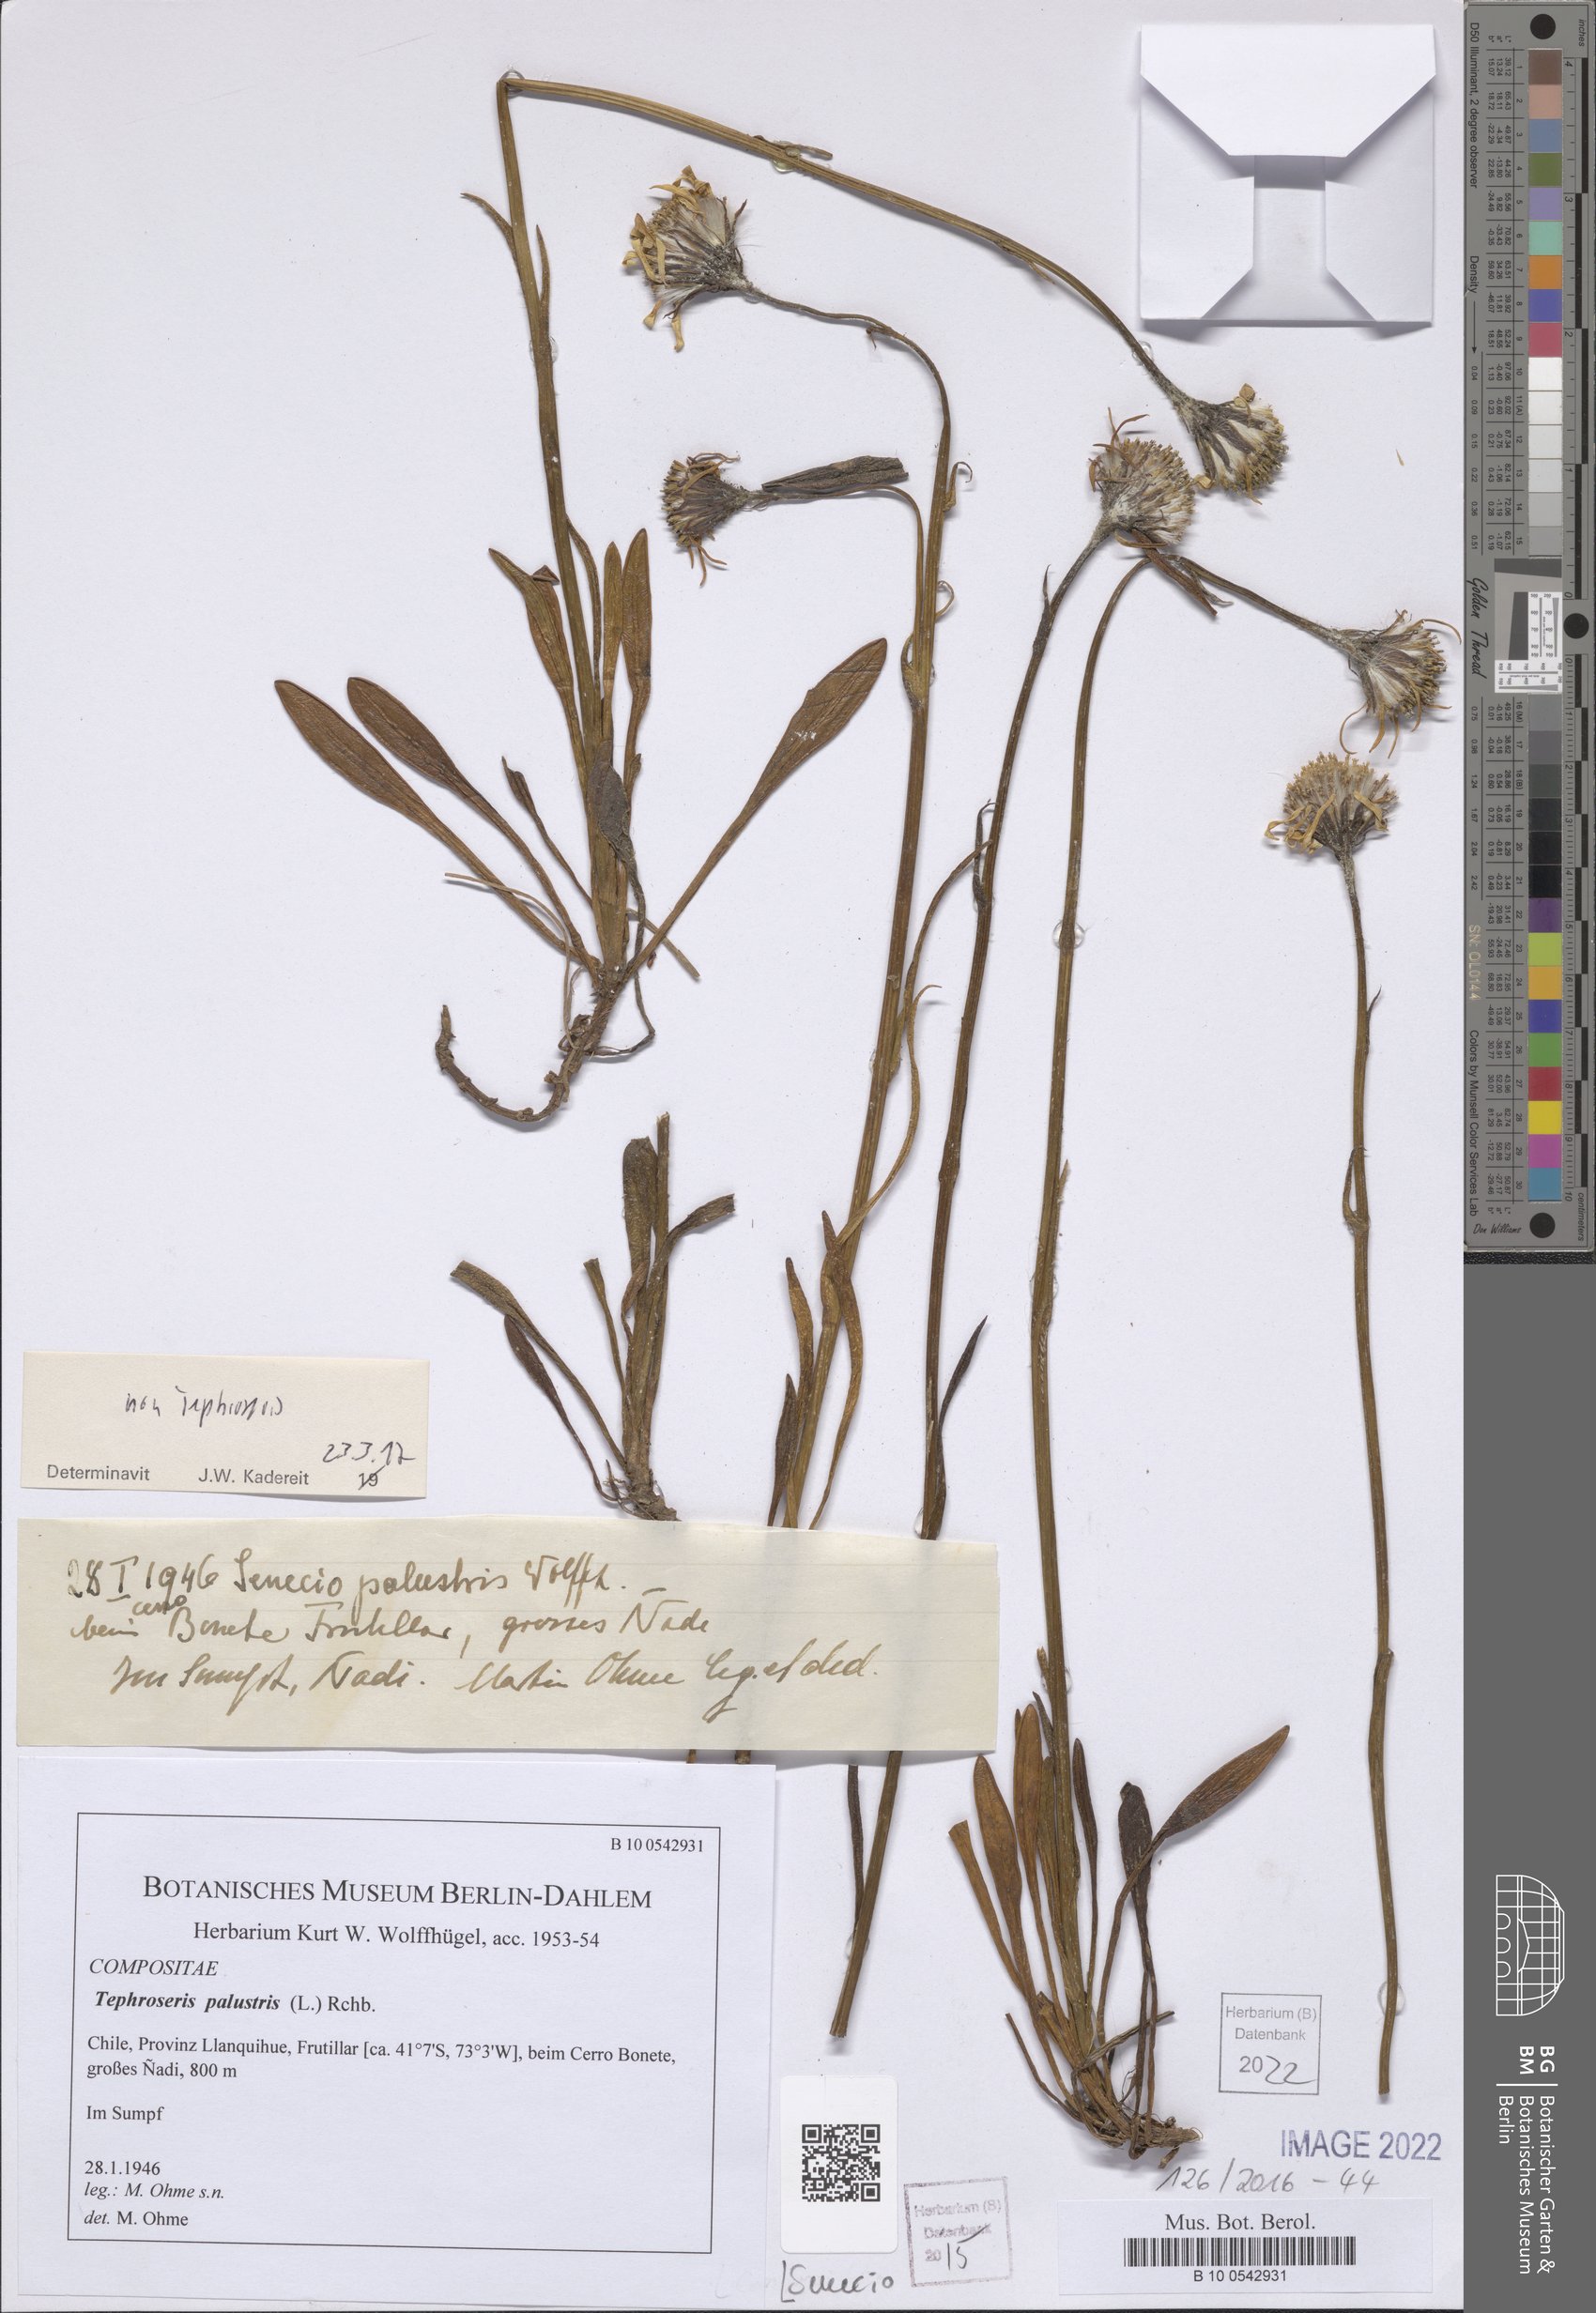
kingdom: Plantae
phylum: Tracheophyta
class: Magnoliopsida
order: Asterales
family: Asteraceae
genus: Senecio
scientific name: Senecio
